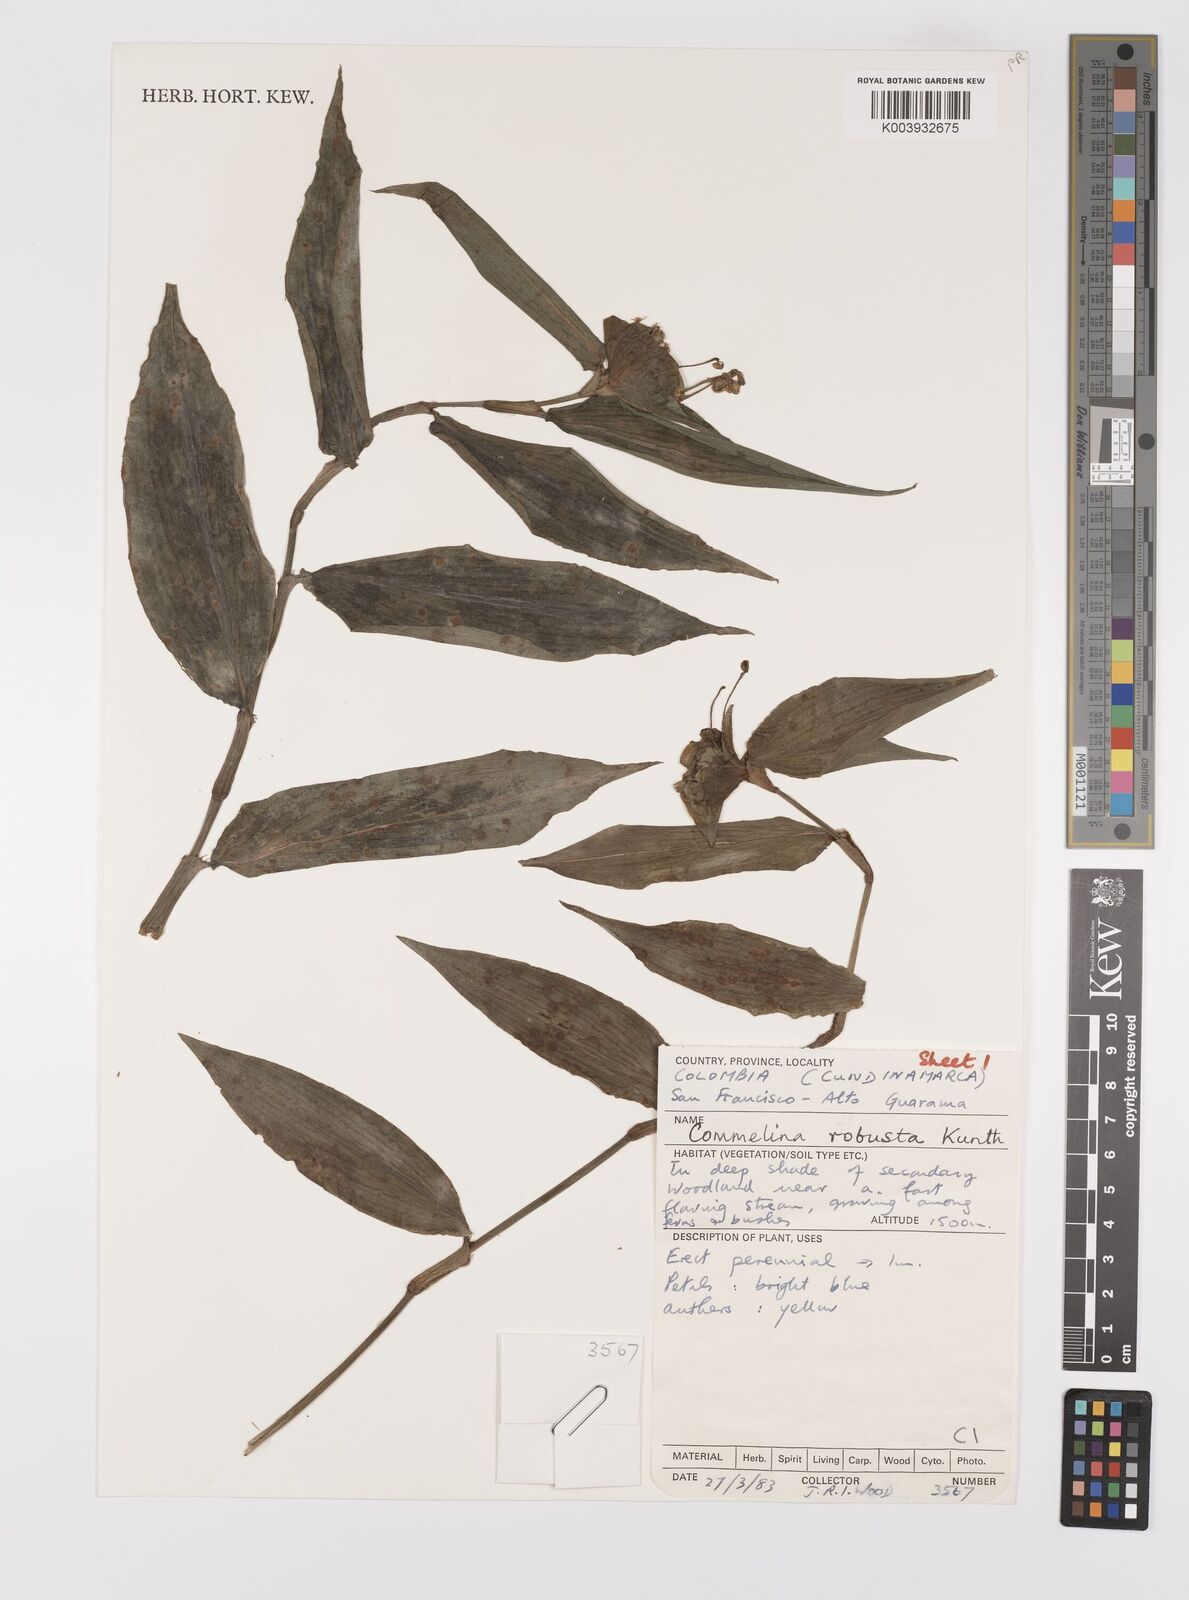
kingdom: Plantae
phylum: Tracheophyta
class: Liliopsida
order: Commelinales
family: Commelinaceae
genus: Commelina
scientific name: Commelina obliqua
